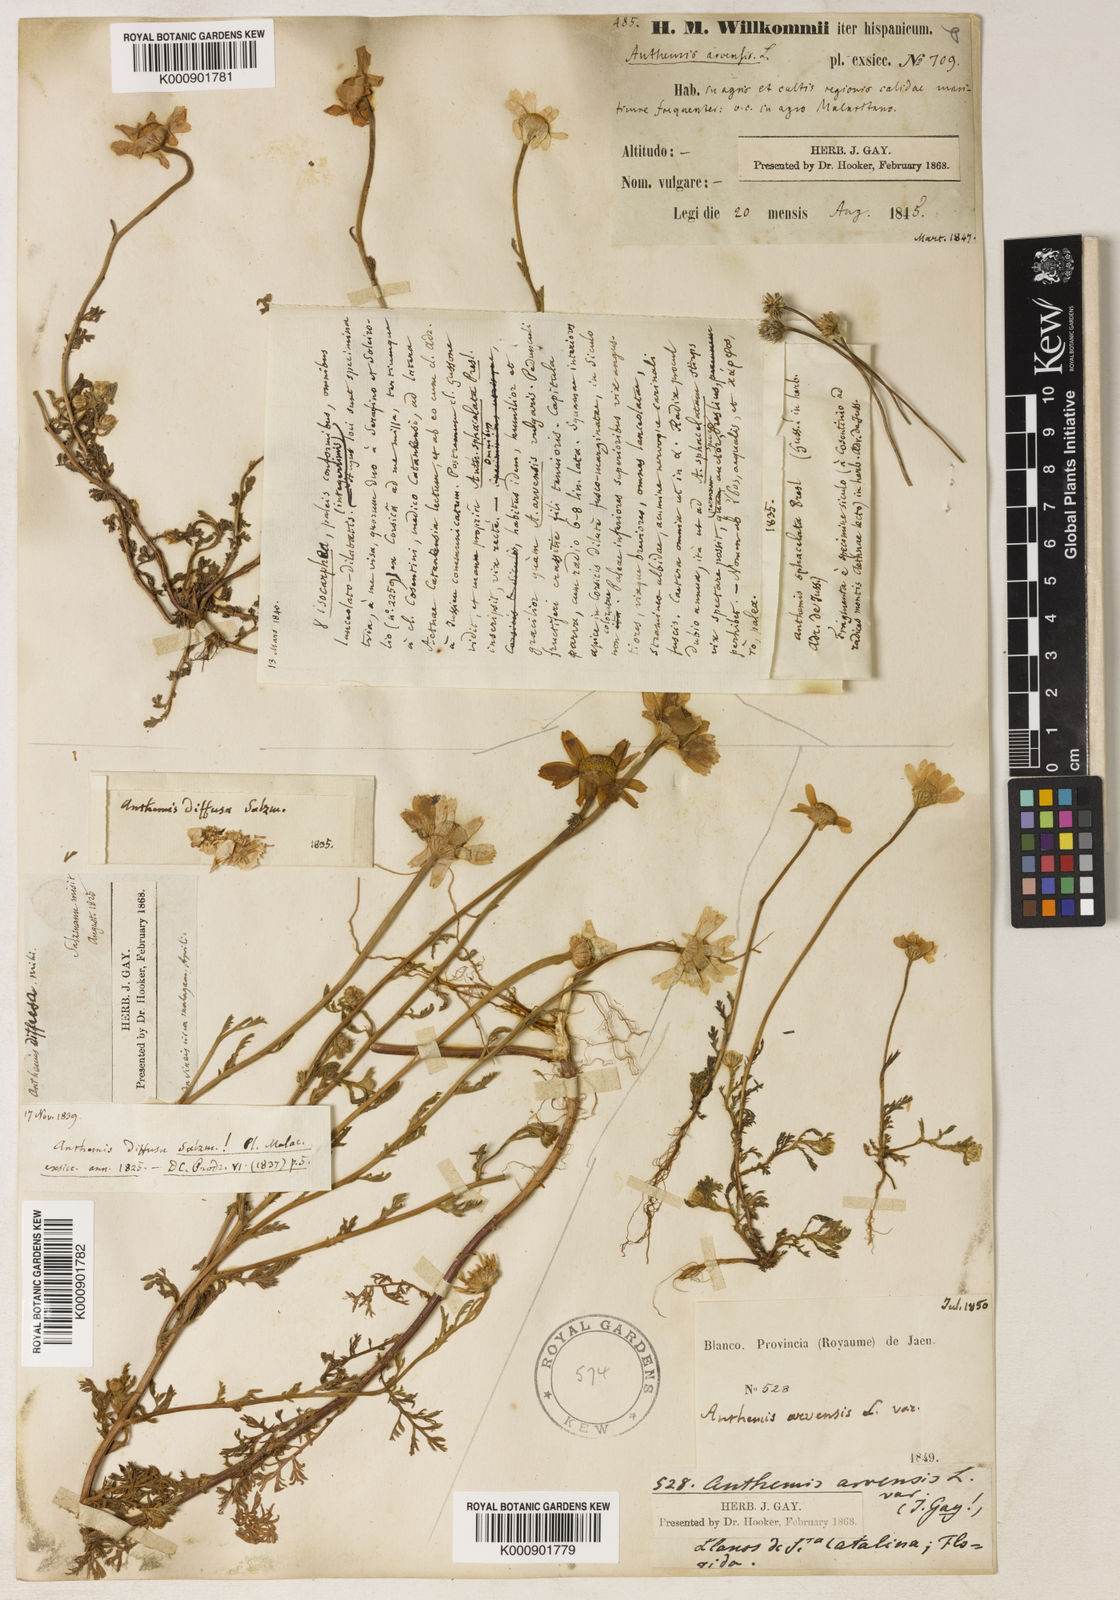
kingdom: Plantae
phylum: Tracheophyta
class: Magnoliopsida
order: Asterales
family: Asteraceae
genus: Anthemis
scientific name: Anthemis arvensis
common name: Corn chamomile
